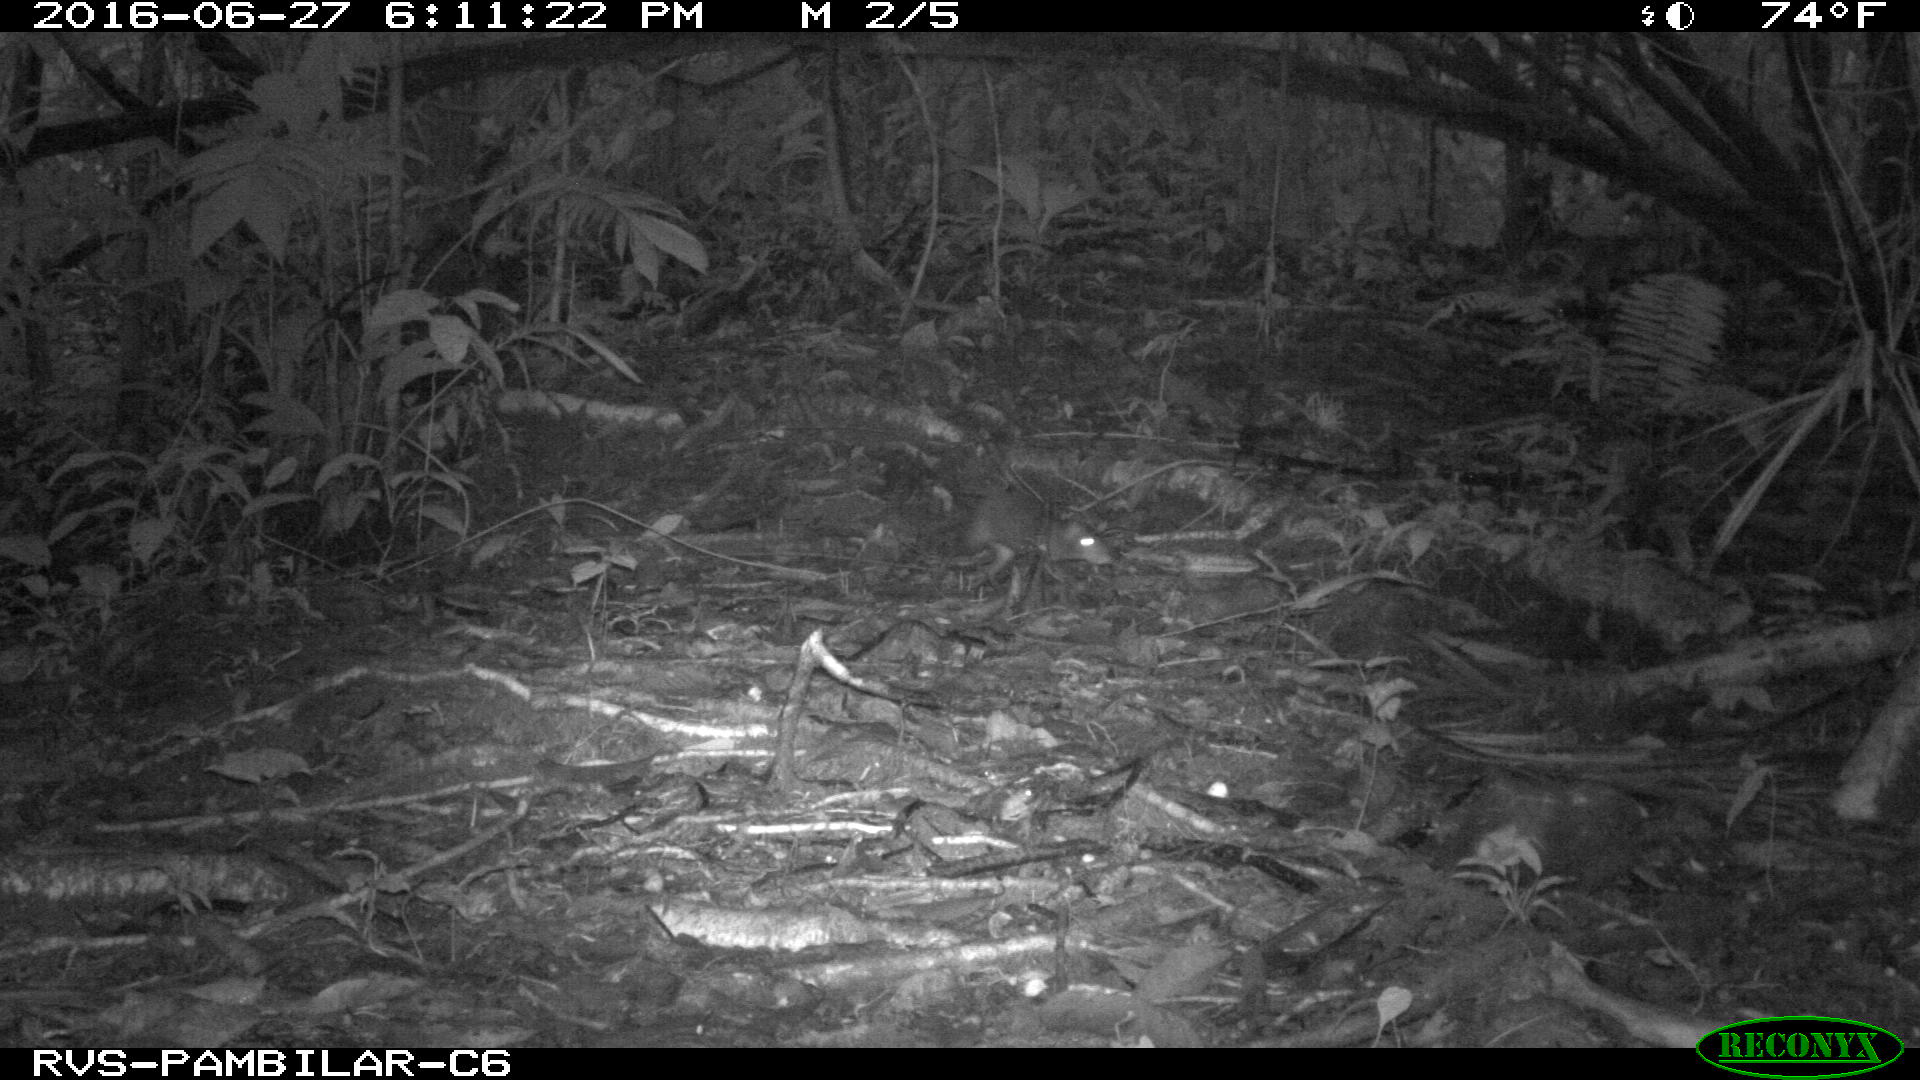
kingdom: Animalia
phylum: Chordata
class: Mammalia
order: Rodentia
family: Dasyproctidae
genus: Dasyprocta
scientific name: Dasyprocta punctata
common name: Central american agouti
